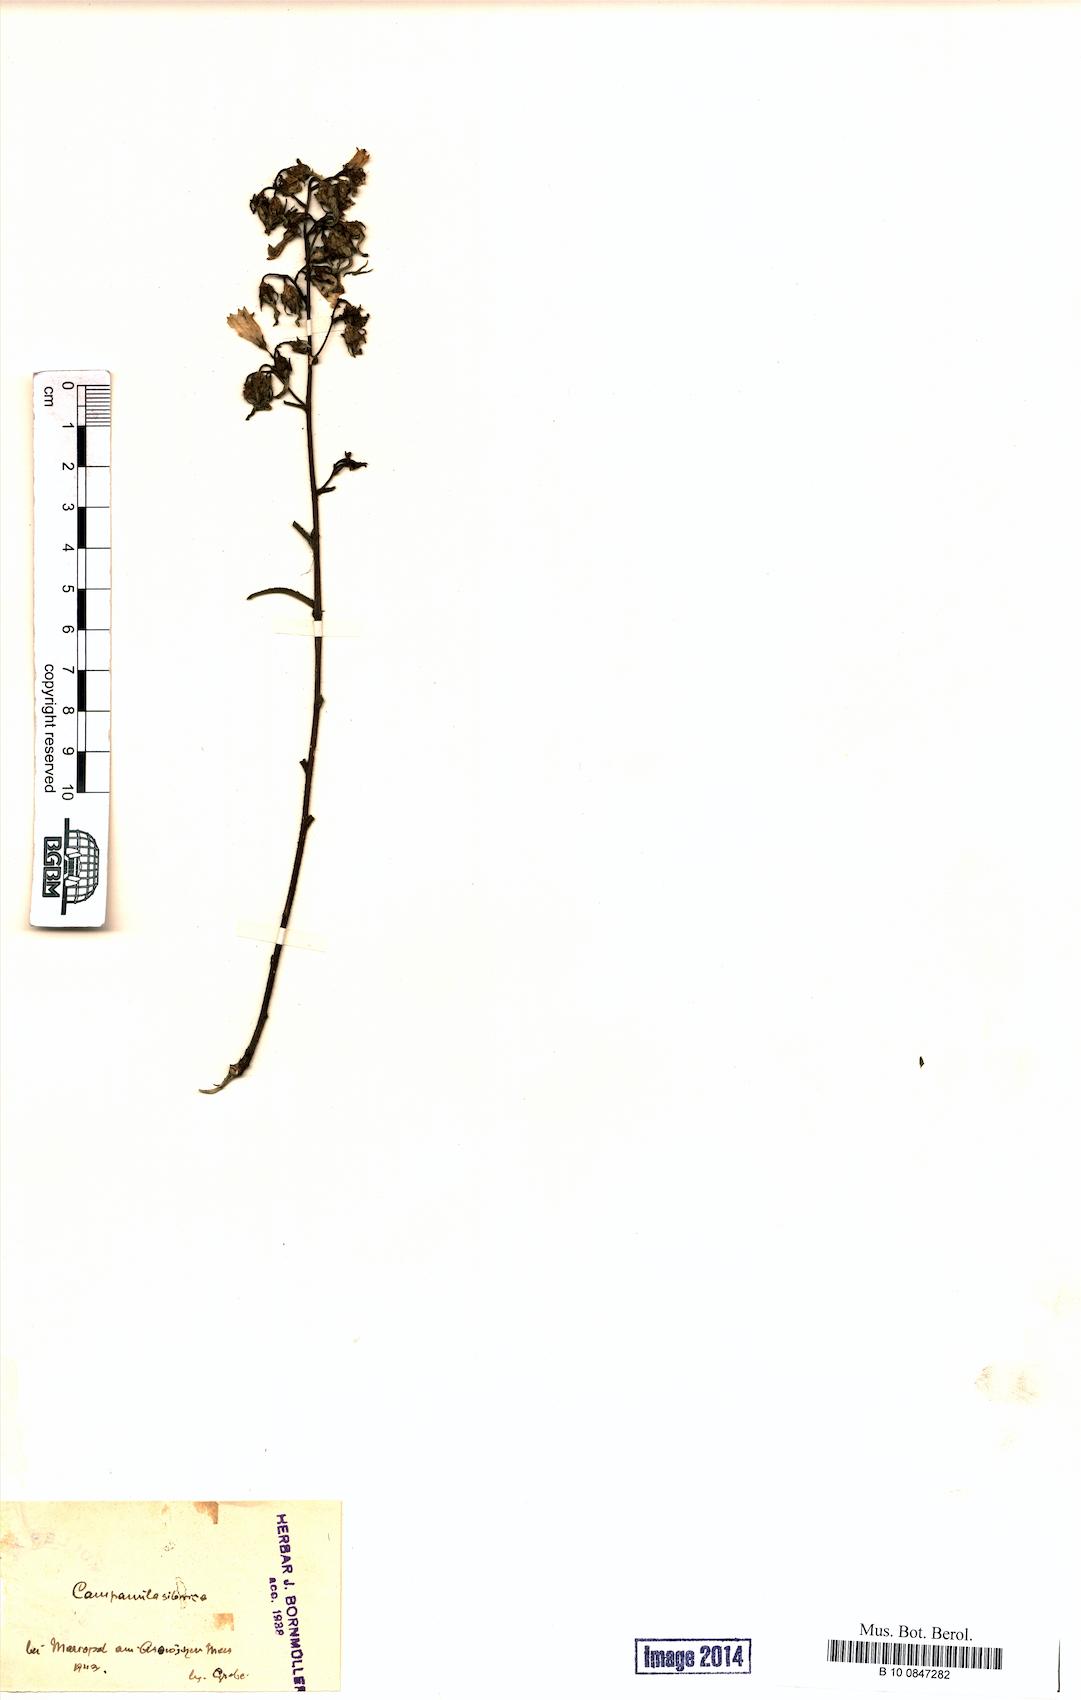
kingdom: Plantae
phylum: Tracheophyta
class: Magnoliopsida
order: Asterales
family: Campanulaceae
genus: Campanula
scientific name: Campanula sibirica
